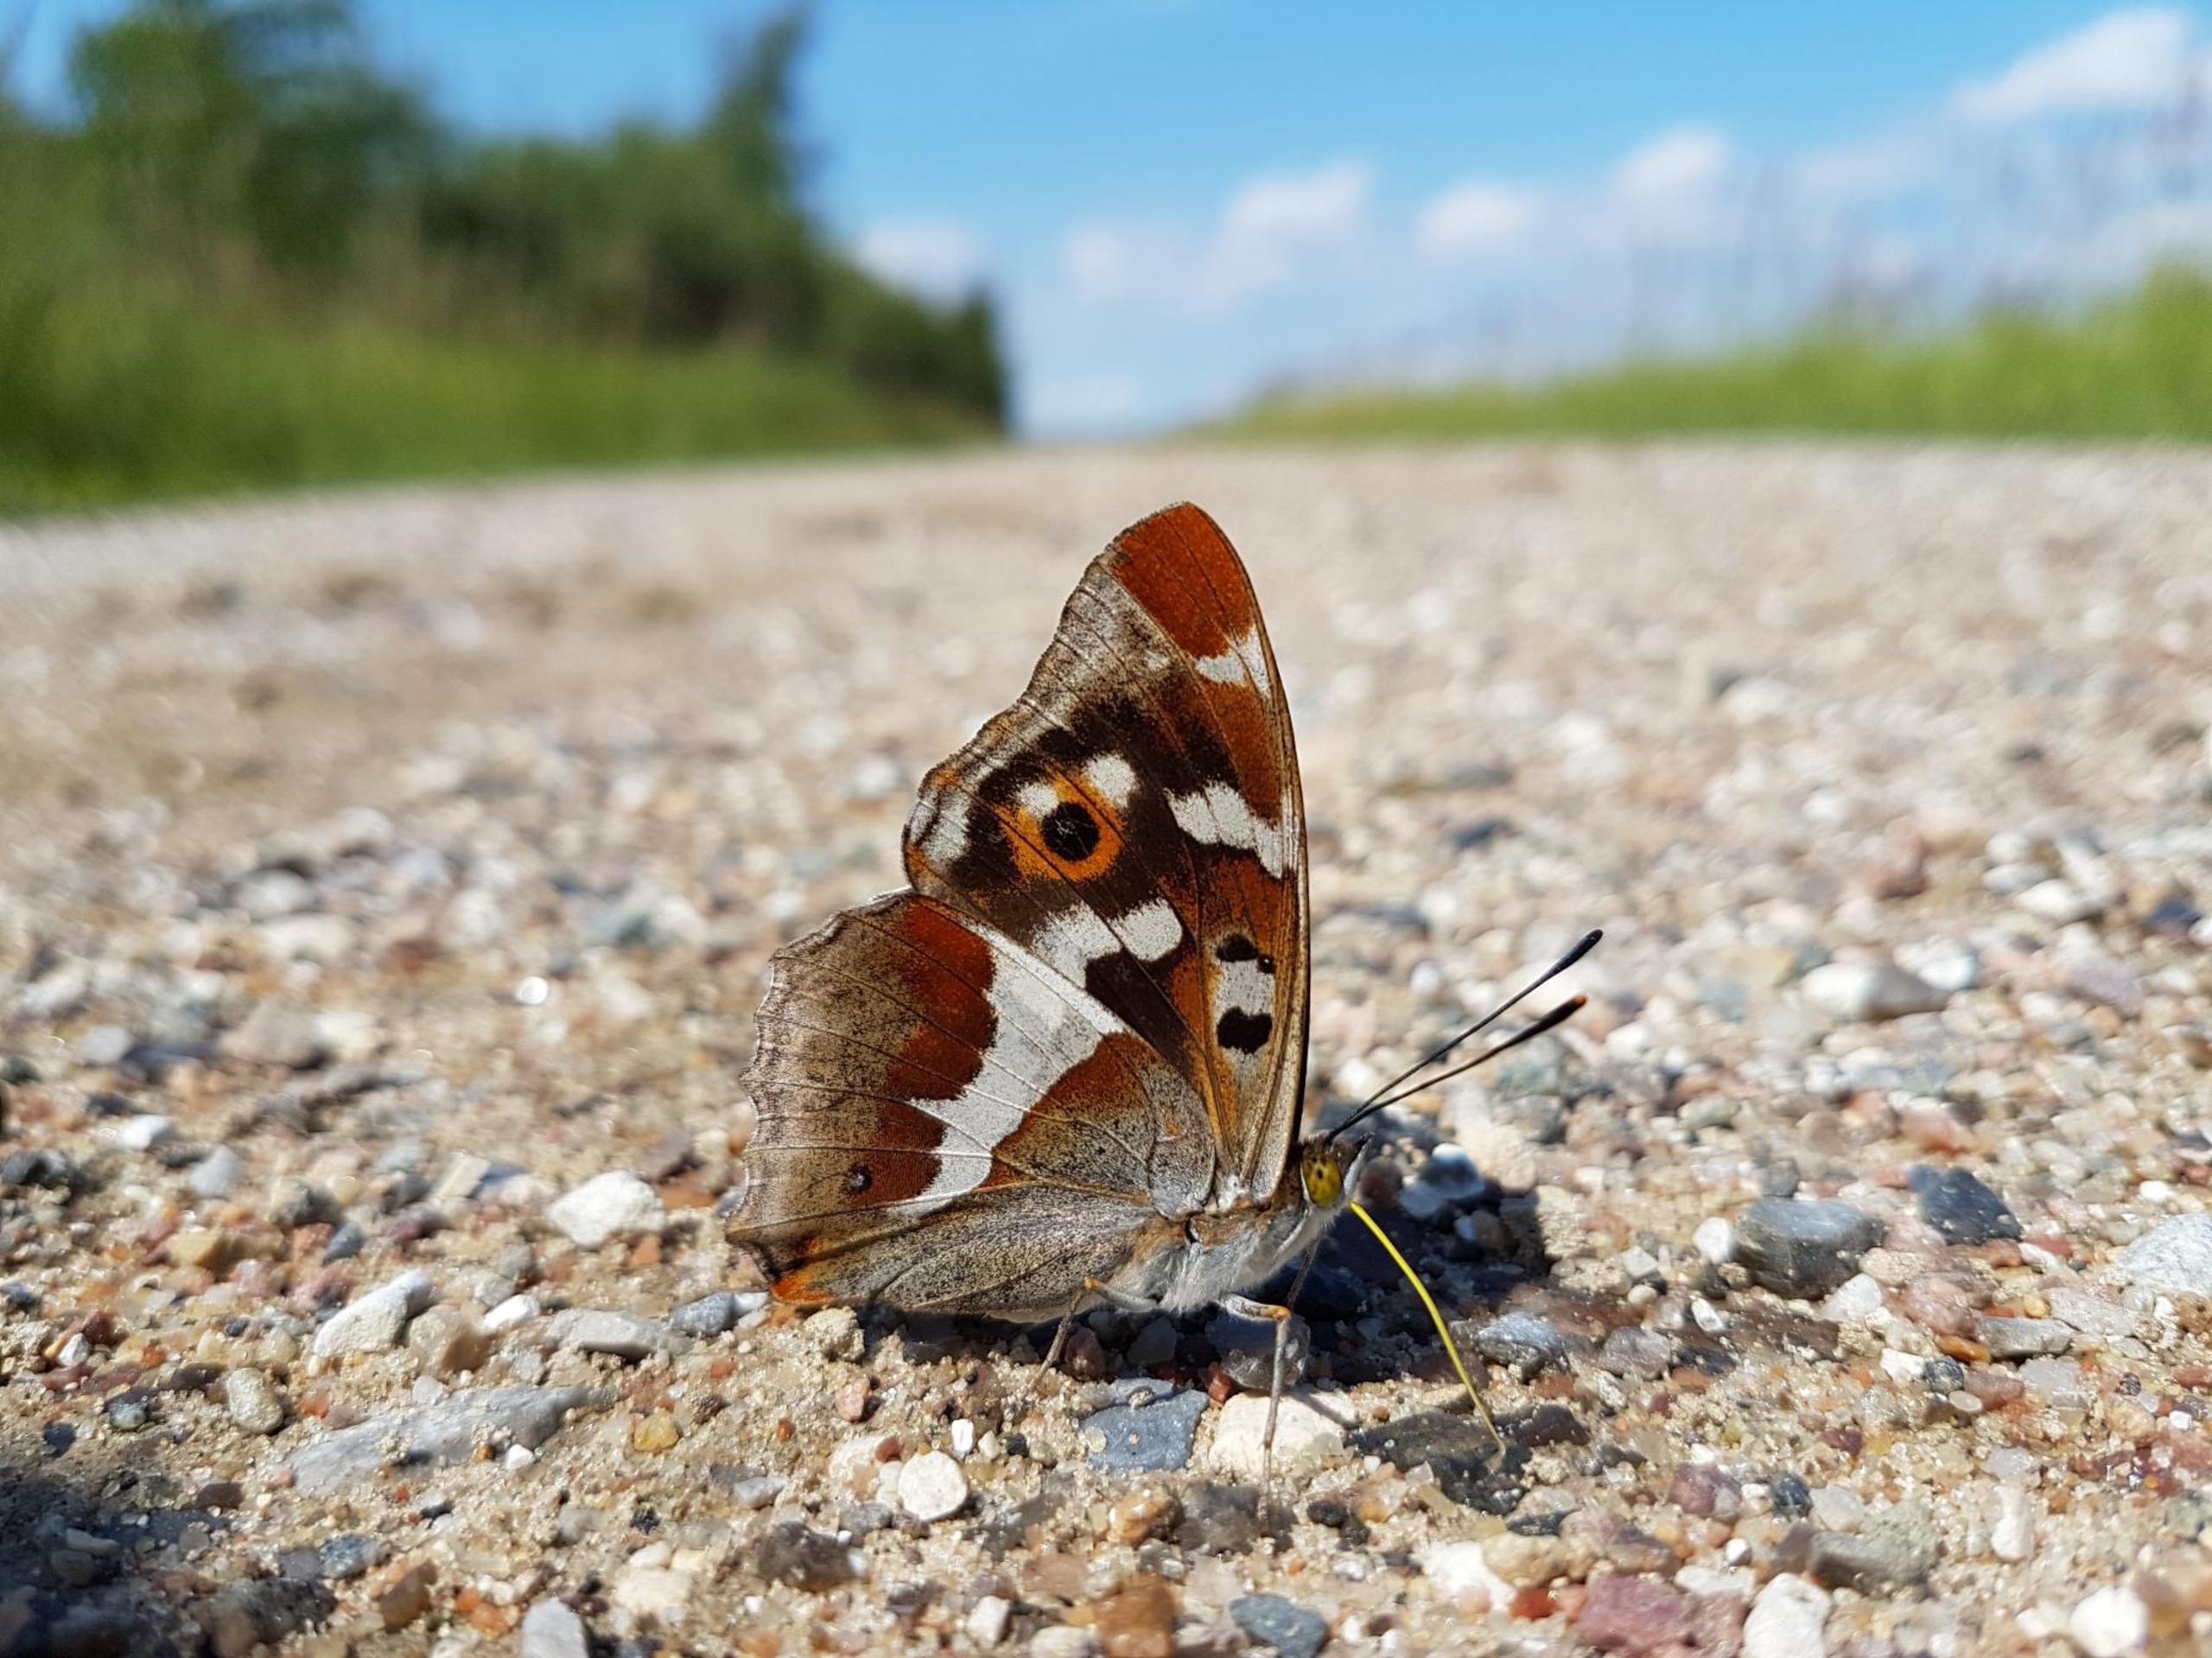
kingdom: Animalia
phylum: Arthropoda
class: Insecta
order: Lepidoptera
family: Nymphalidae
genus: Apatura
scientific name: Apatura iris
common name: Iris
